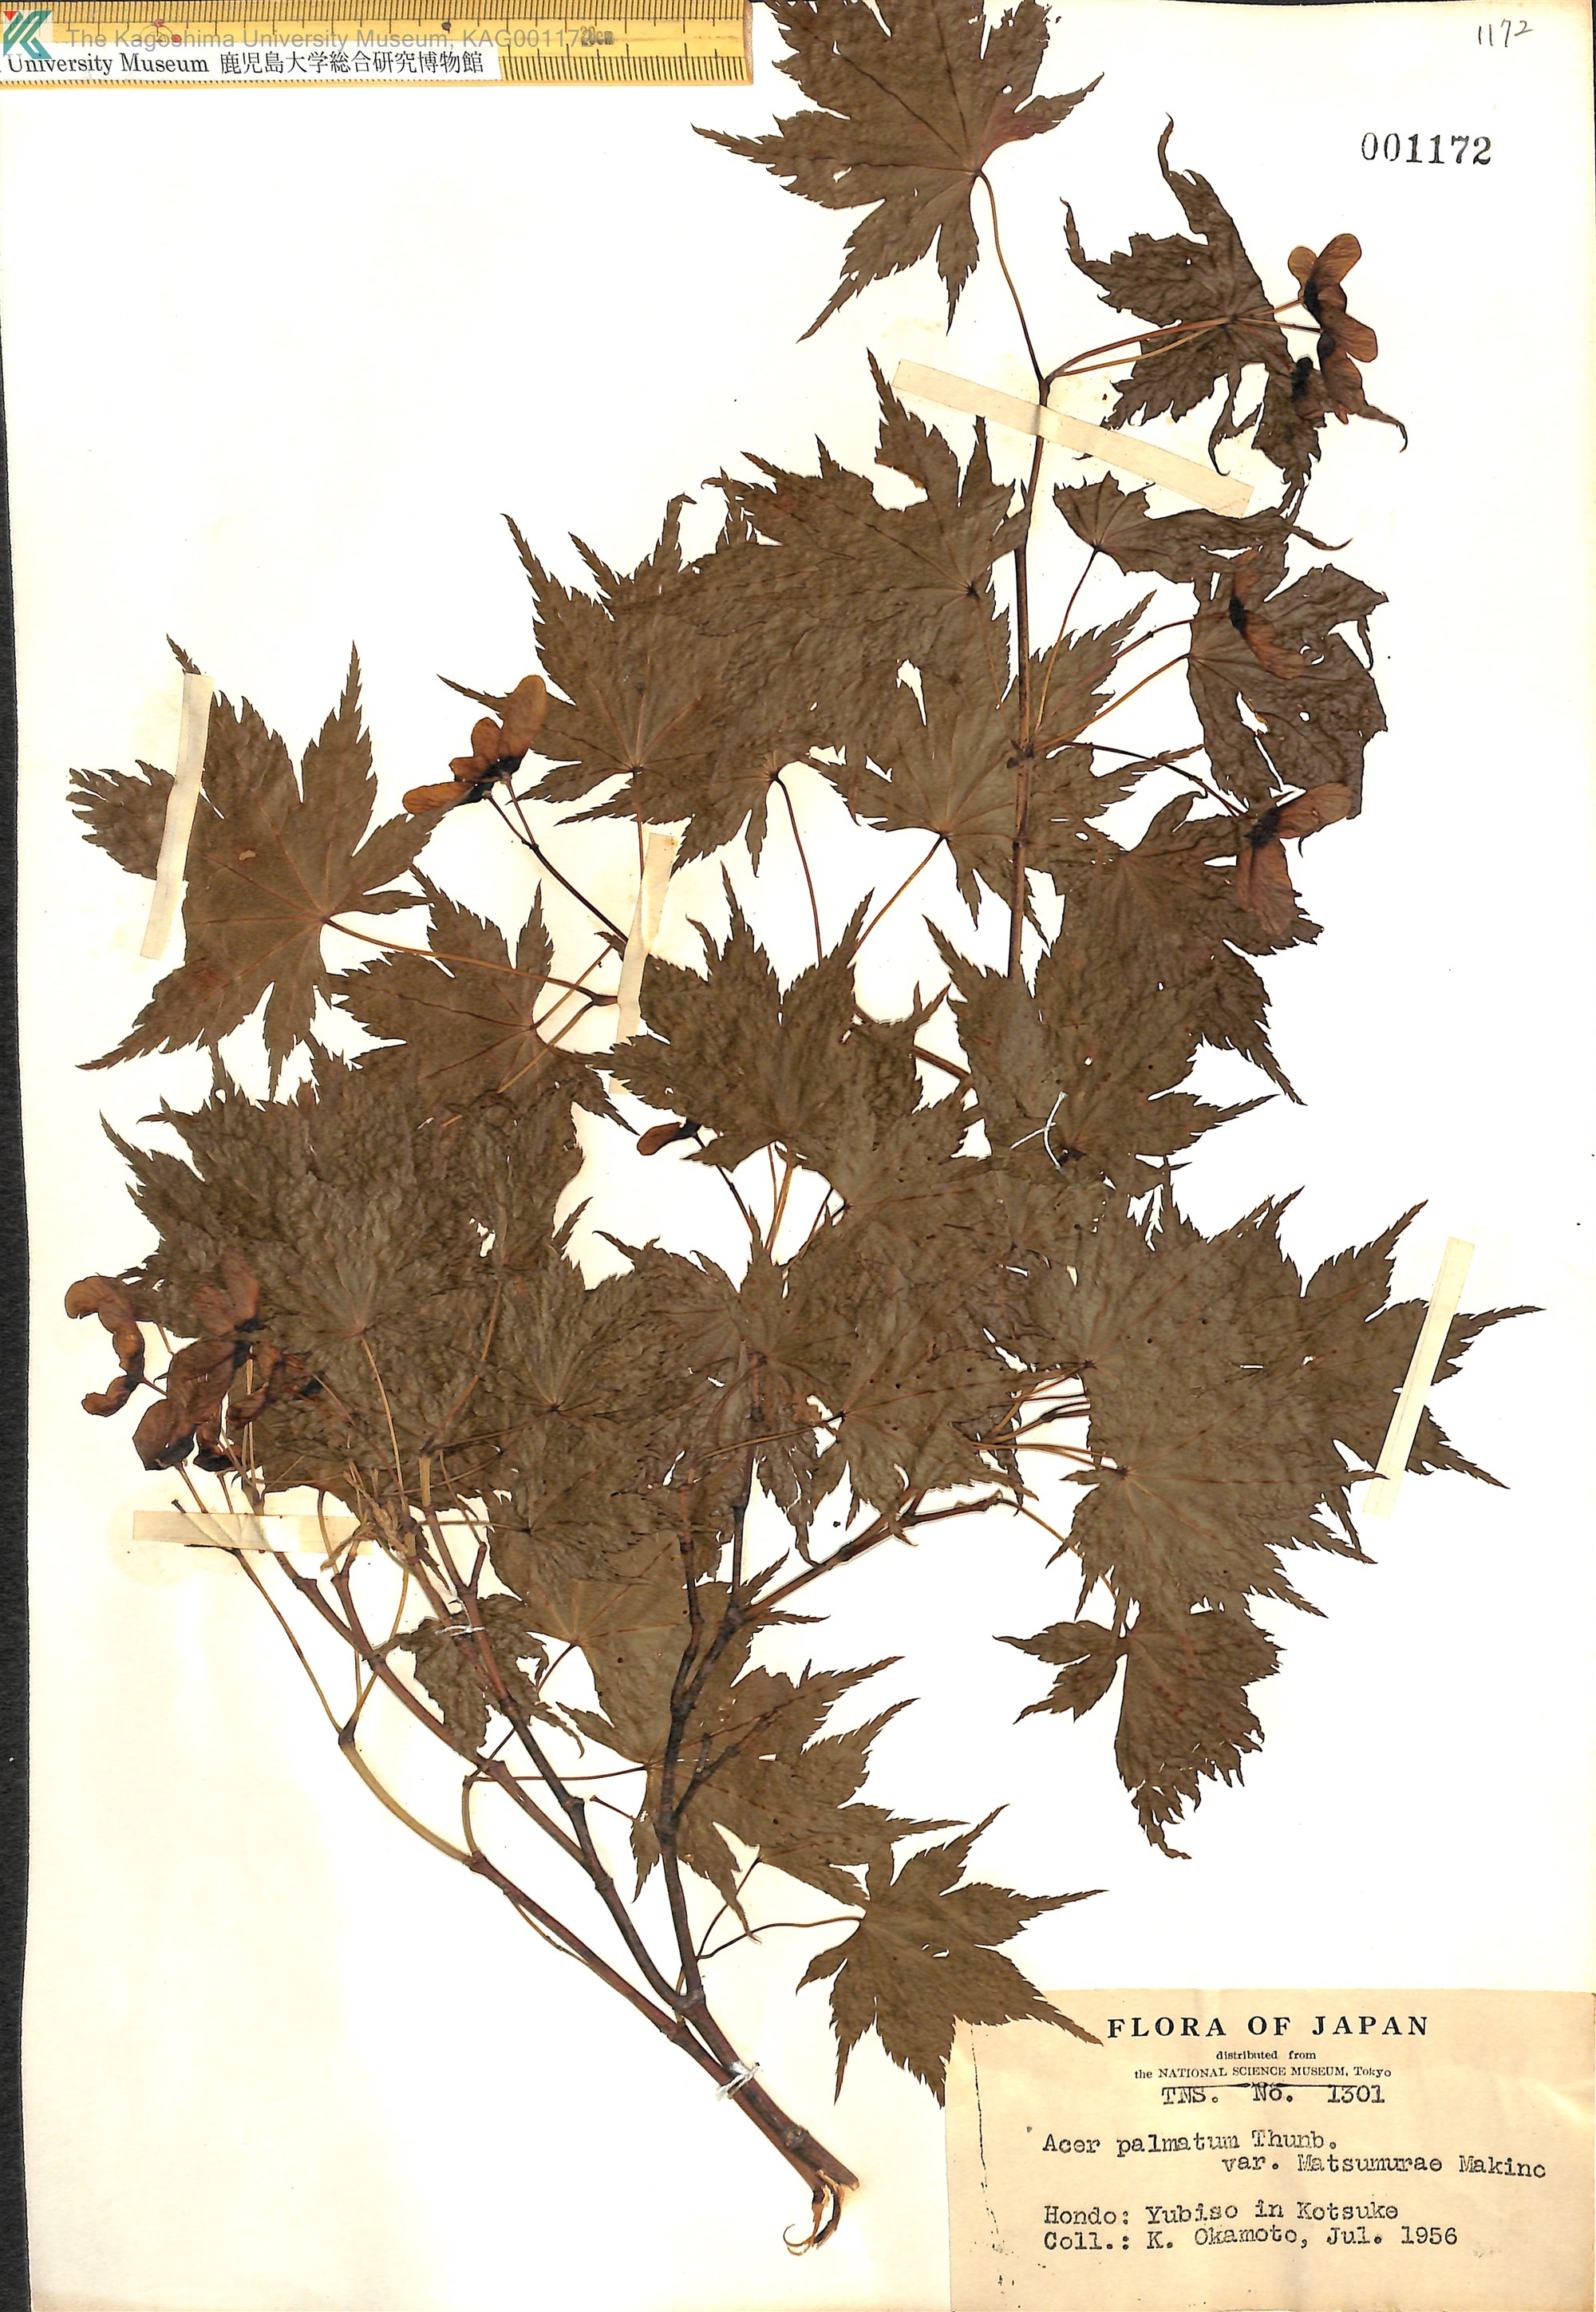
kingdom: Plantae
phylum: Tracheophyta
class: Magnoliopsida
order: Sapindales
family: Sapindaceae
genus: Acer
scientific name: Acer palmatum
